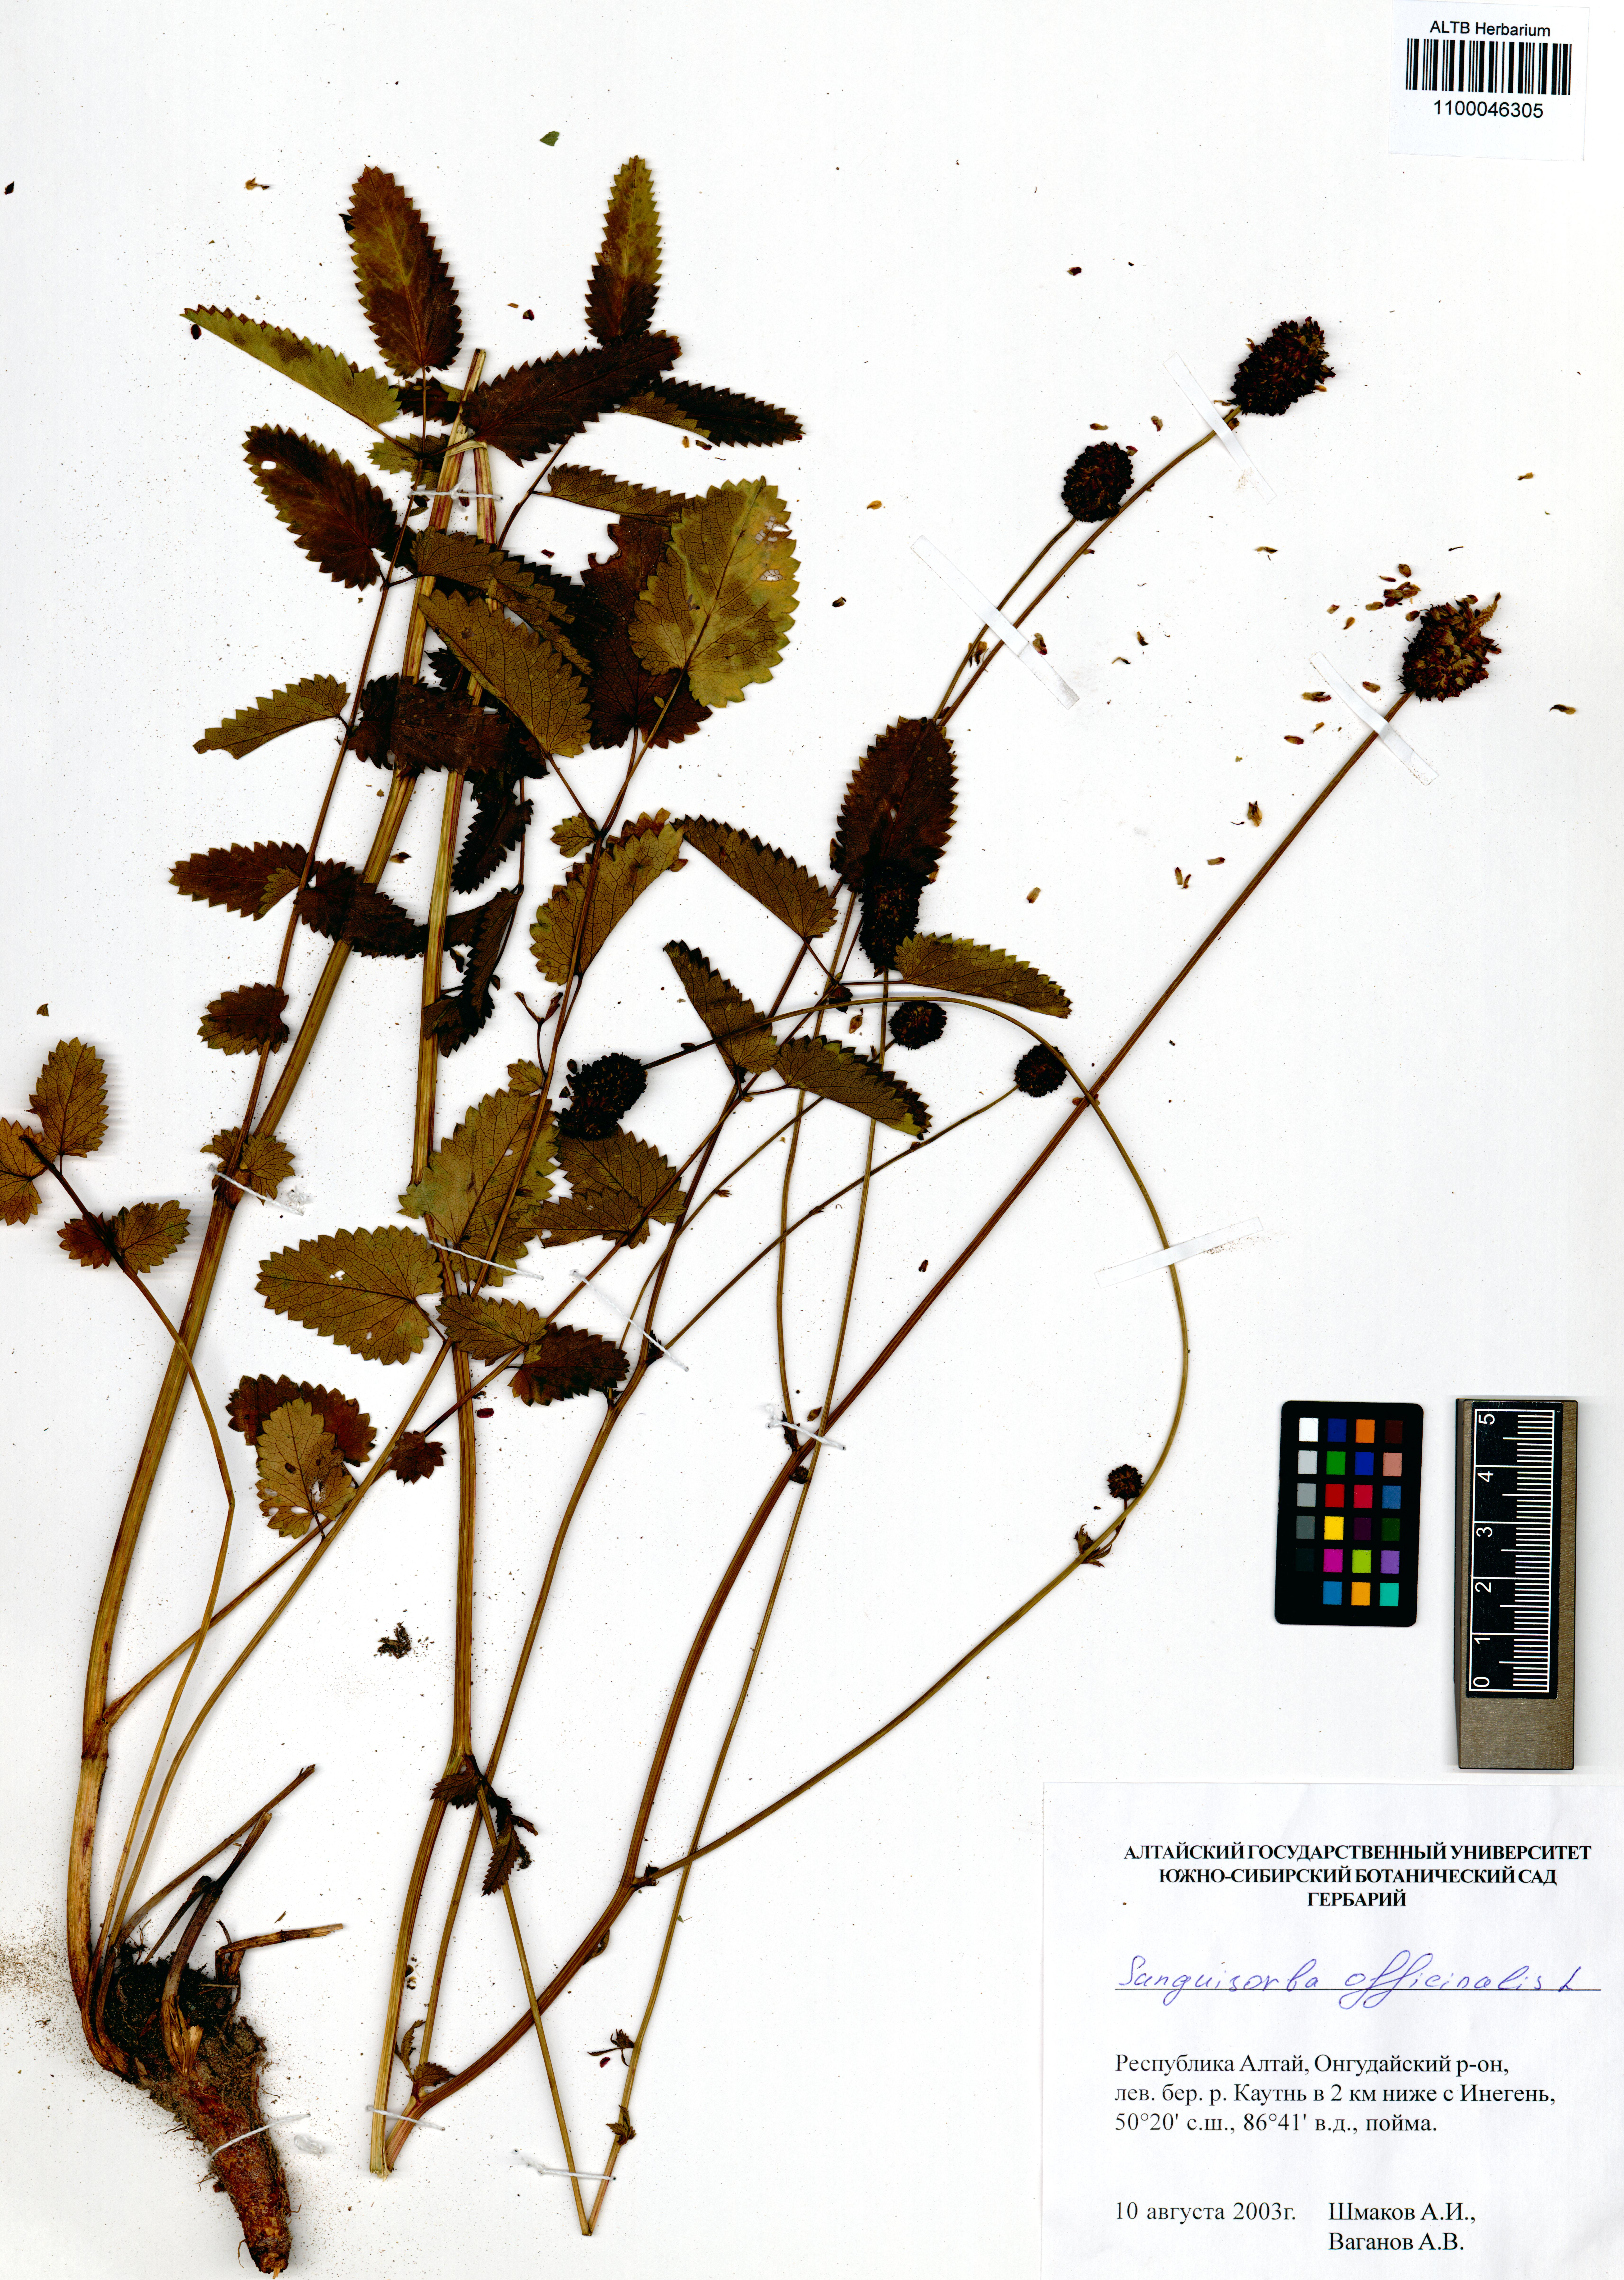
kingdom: Plantae
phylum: Tracheophyta
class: Magnoliopsida
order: Rosales
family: Rosaceae
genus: Sanguisorba
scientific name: Sanguisorba officinalis
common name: Great burnet
